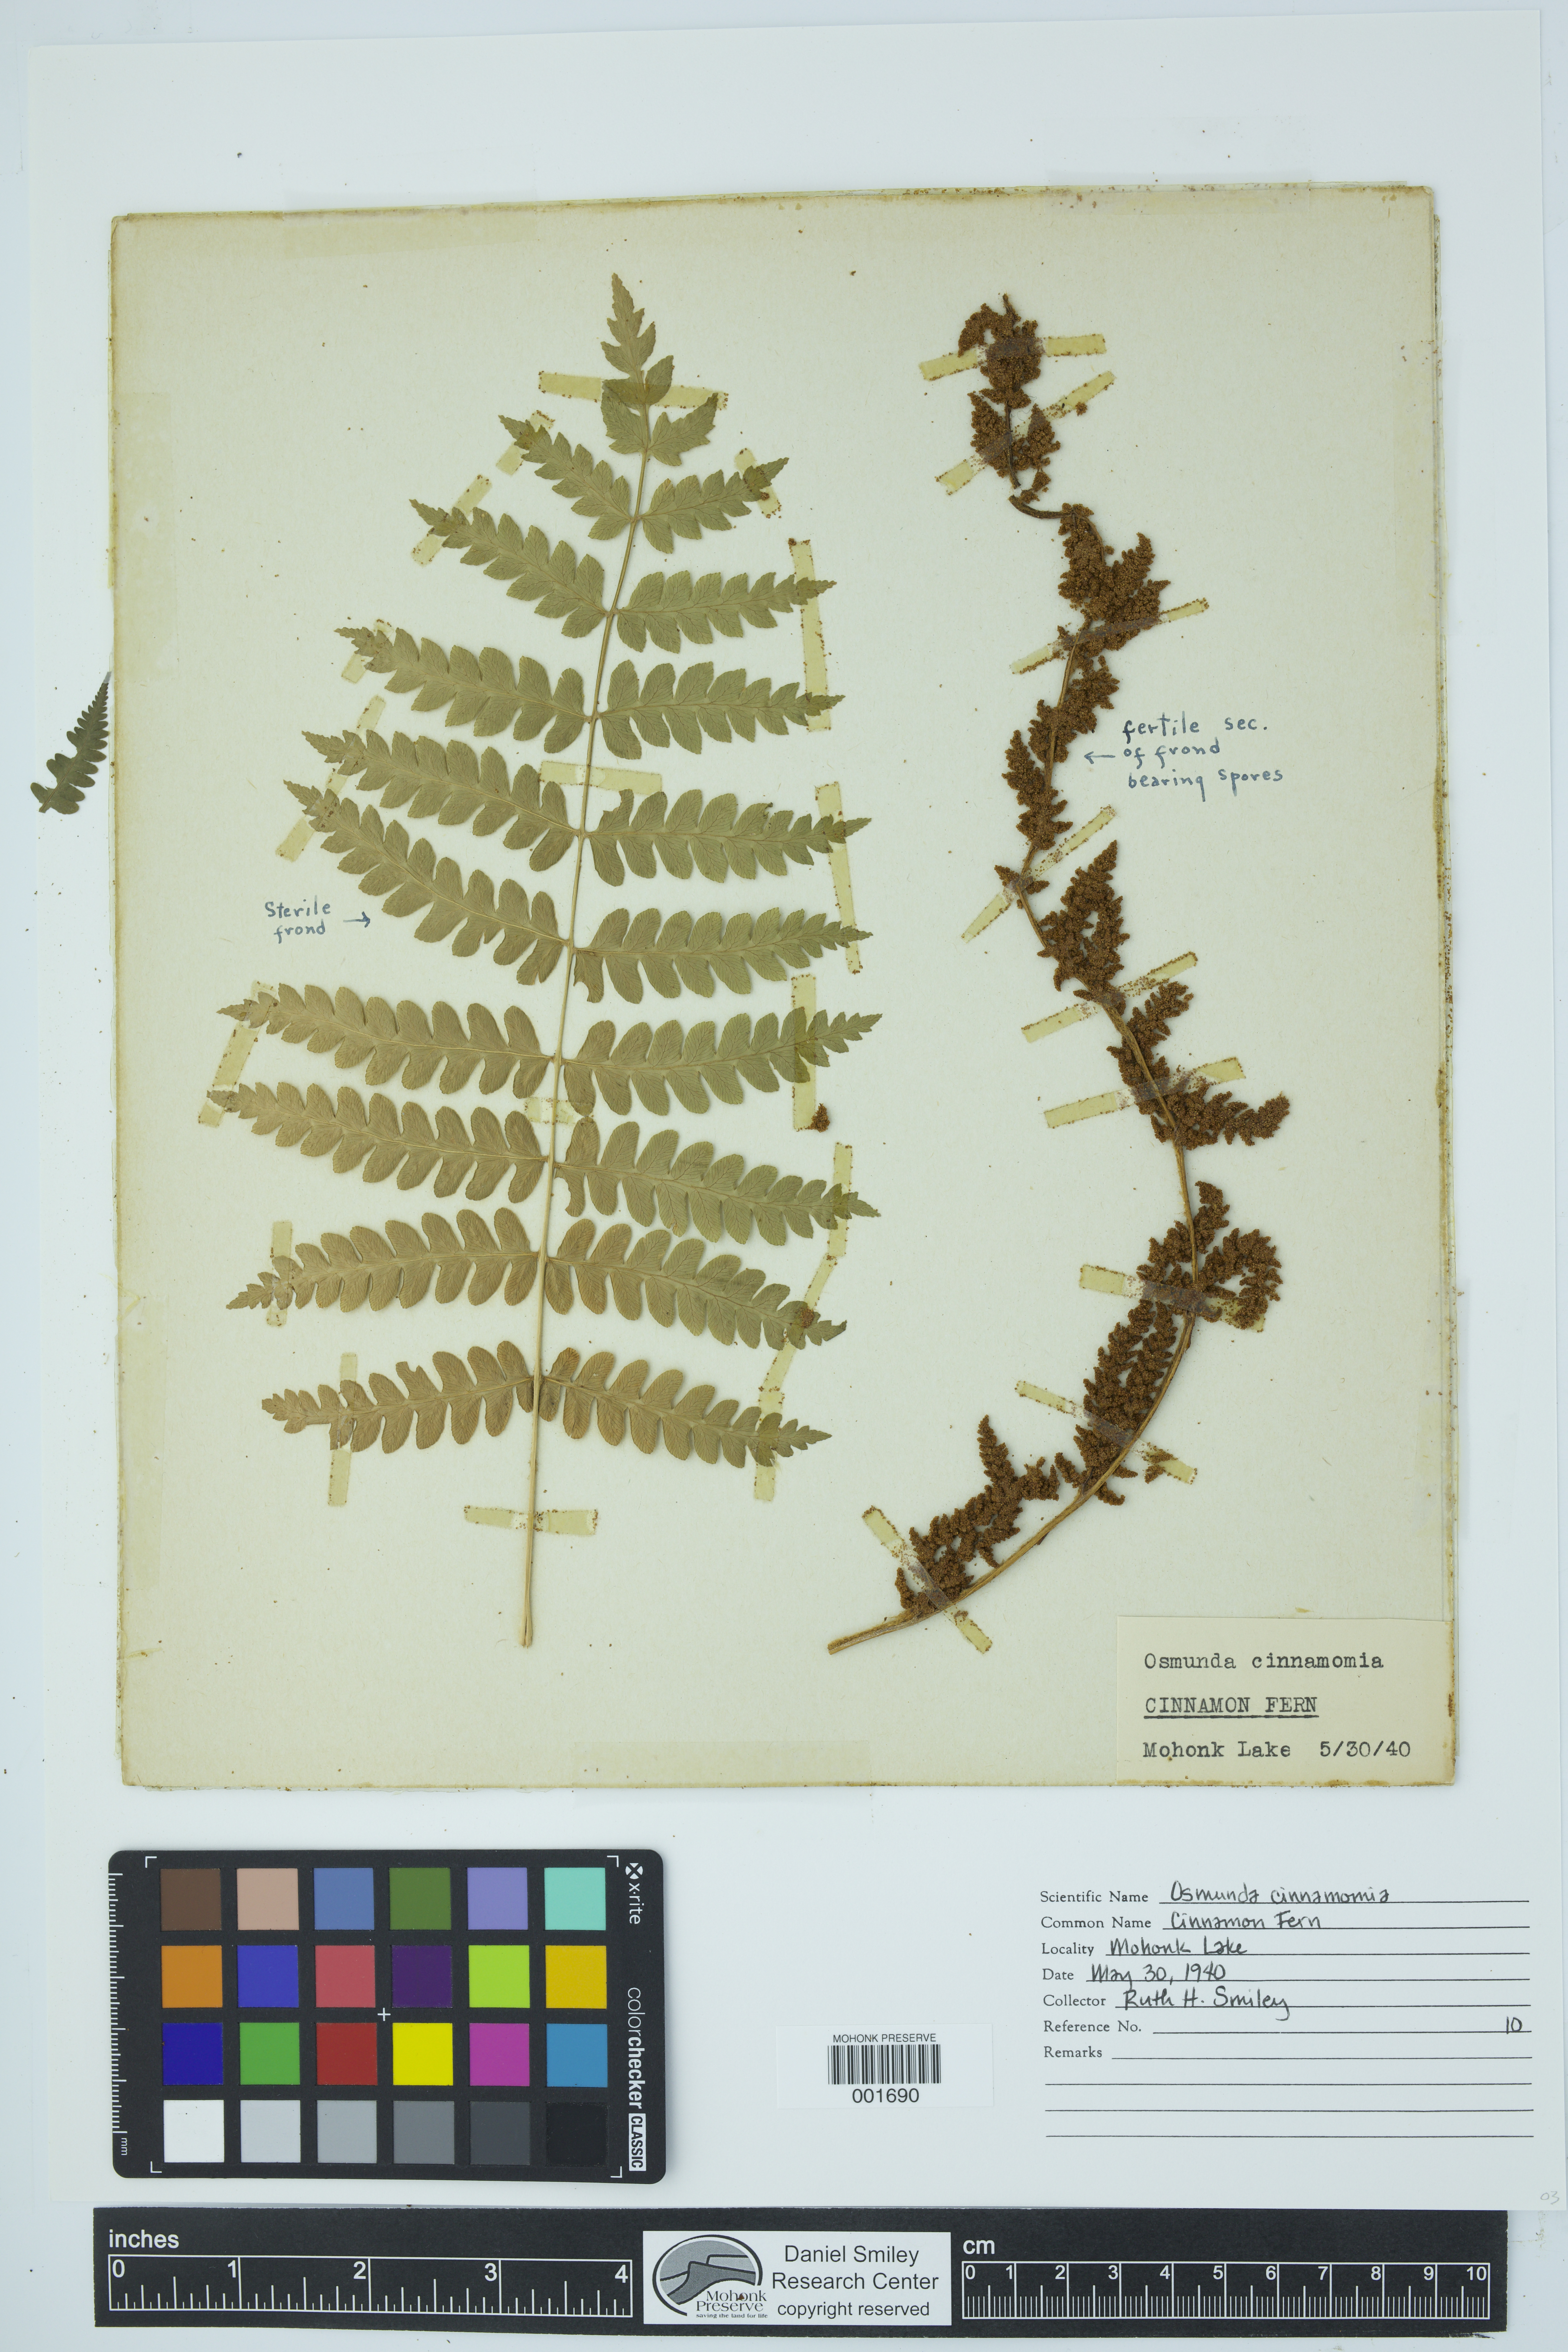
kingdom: Plantae
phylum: Tracheophyta
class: Polypodiopsida
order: Osmundales
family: Osmundaceae
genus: Osmundastrum
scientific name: Osmundastrum cinnamomeum
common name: Cinnamon fern
